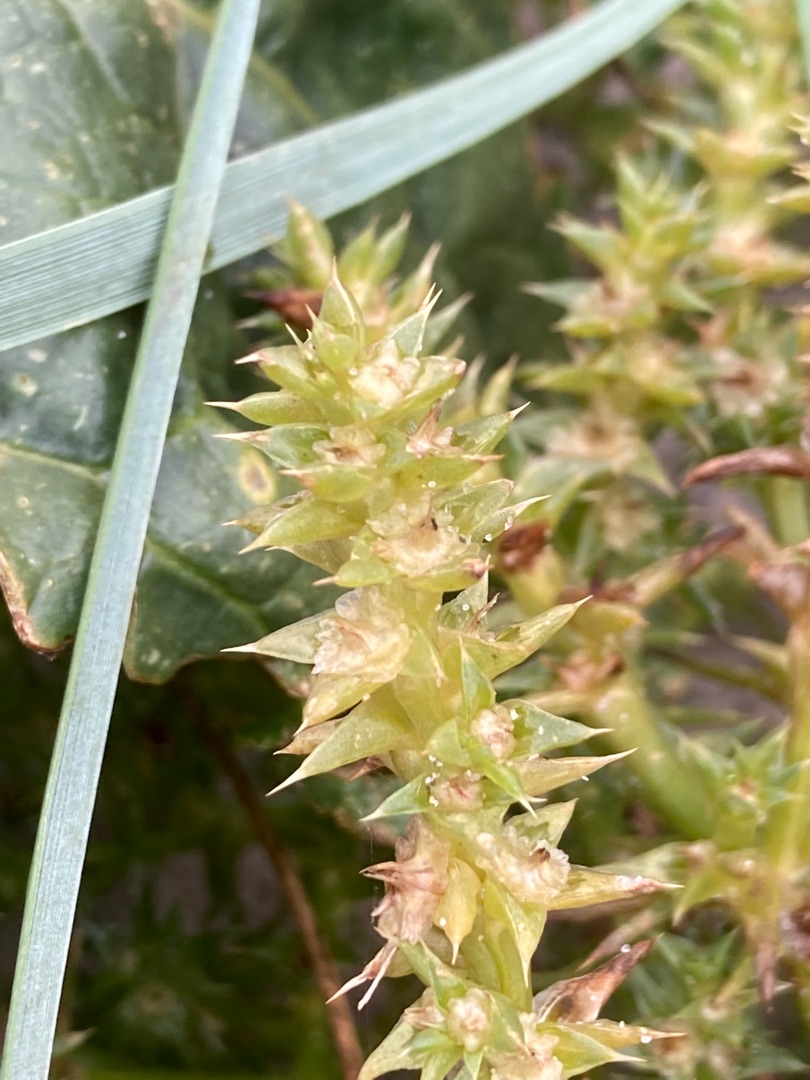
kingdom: Plantae
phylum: Tracheophyta
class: Magnoliopsida
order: Caryophyllales
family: Amaranthaceae
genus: Salsola
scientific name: Salsola kali
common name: Sodaurt
